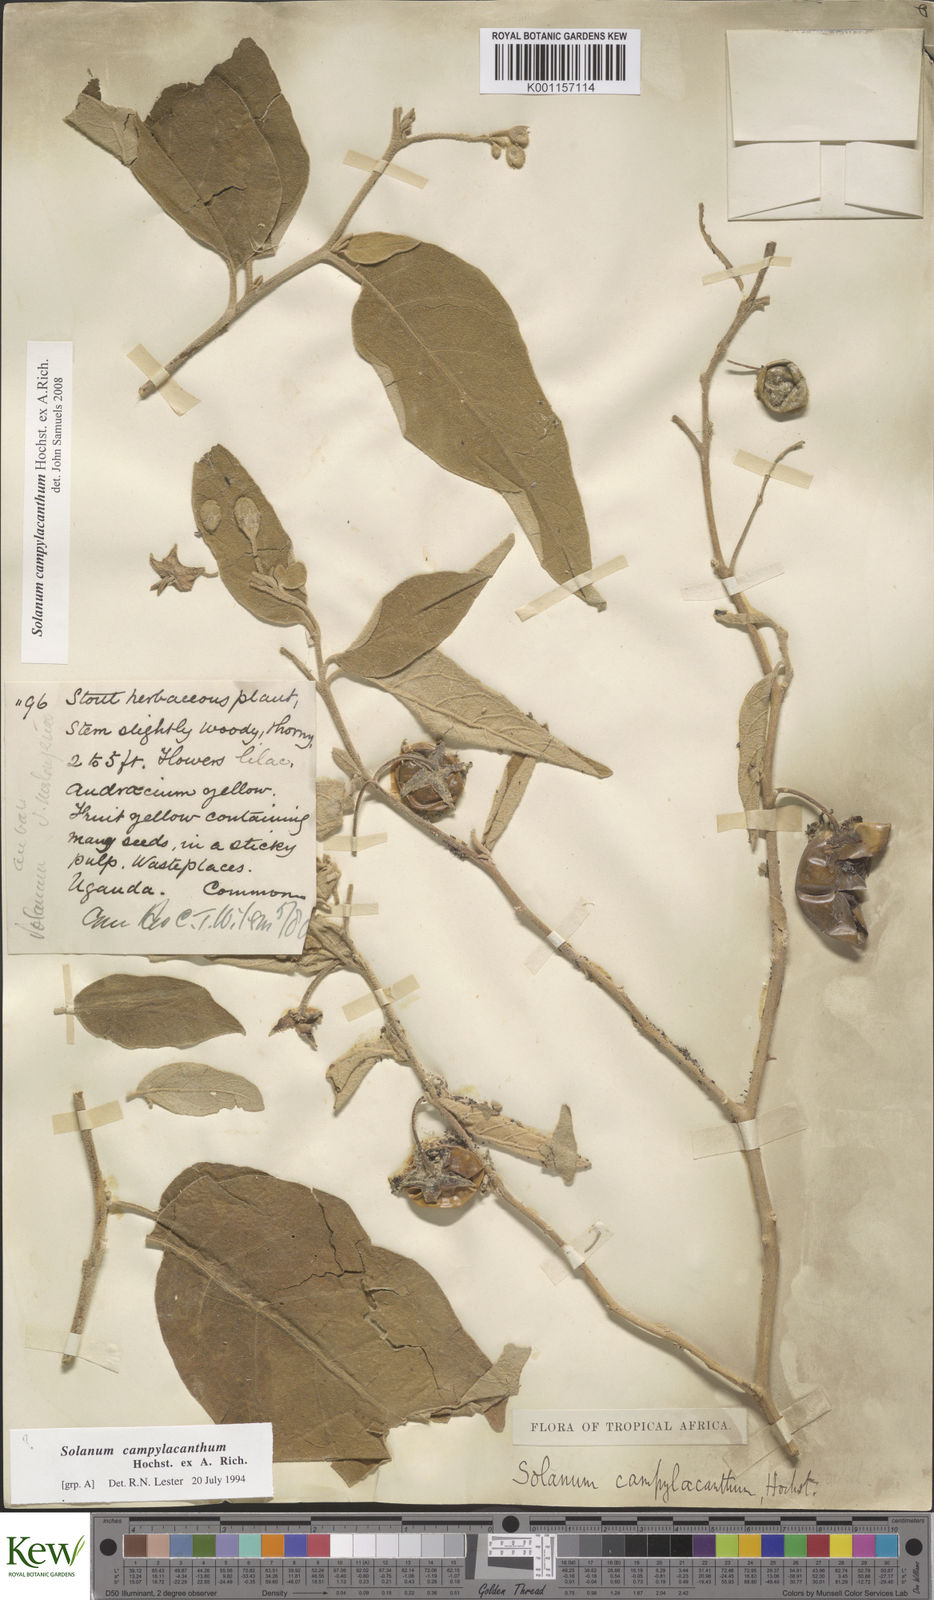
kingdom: Plantae
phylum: Tracheophyta
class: Magnoliopsida
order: Solanales
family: Solanaceae
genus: Solanum
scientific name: Solanum campylacanthum
